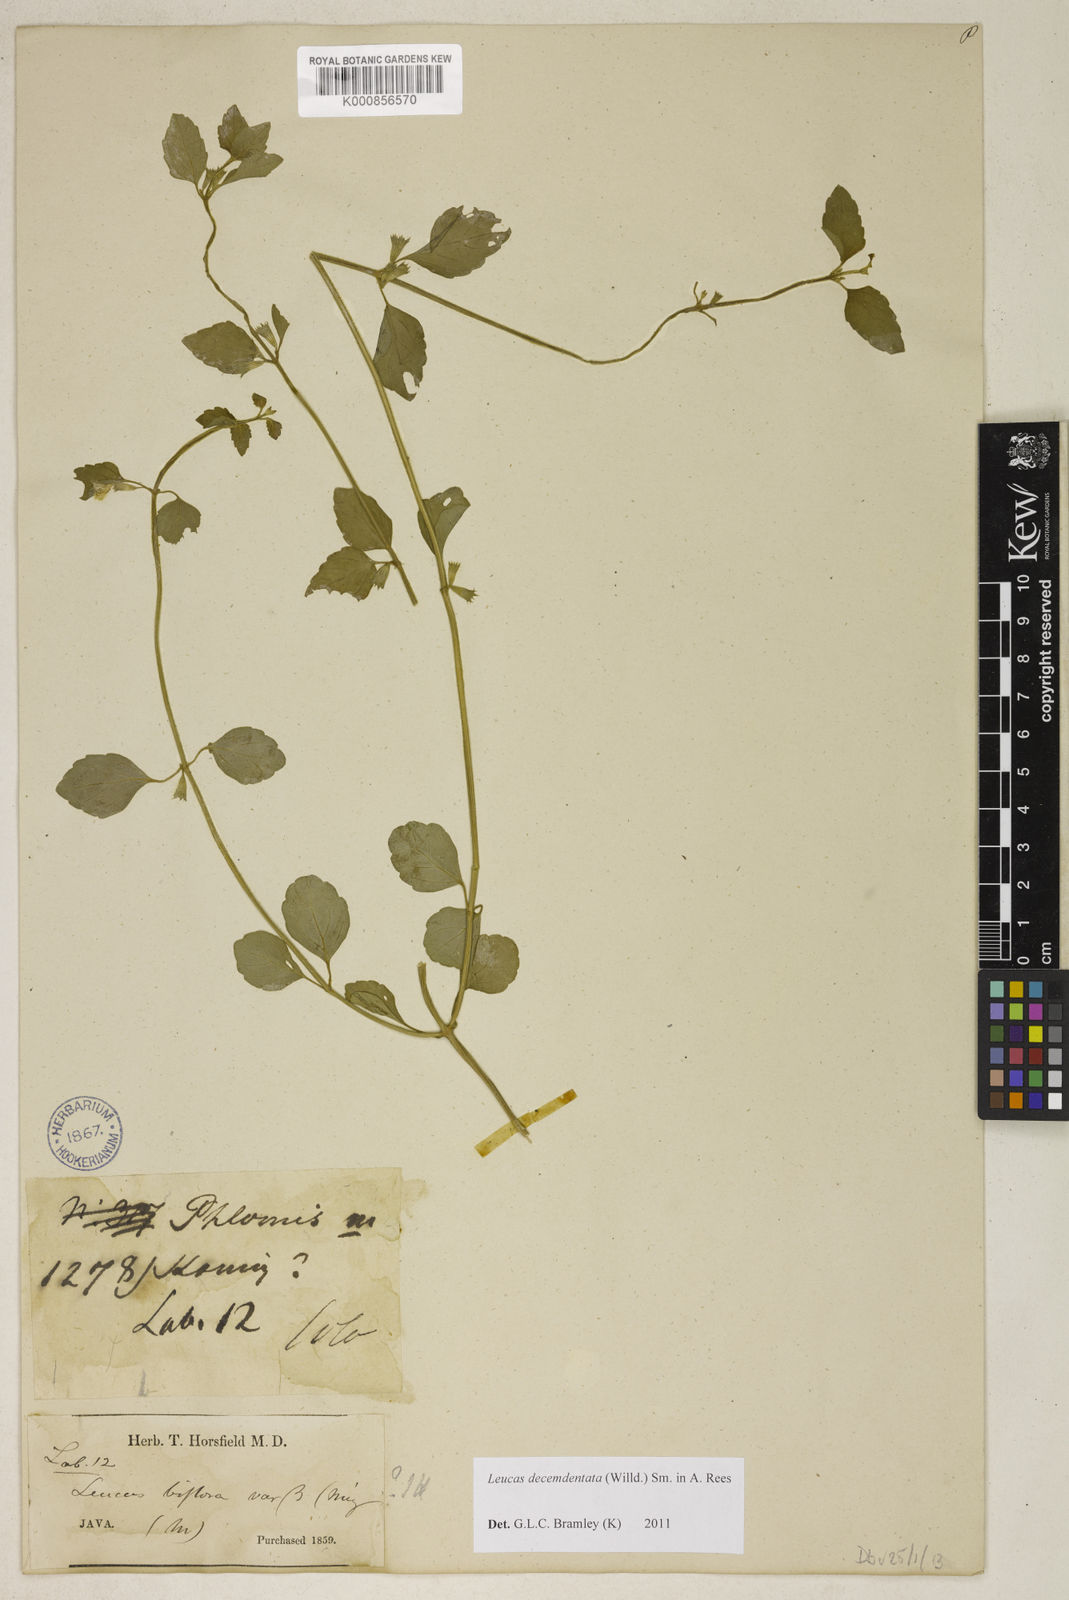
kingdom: Plantae
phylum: Tracheophyta
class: Magnoliopsida
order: Lamiales
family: Lamiaceae
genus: Leucas
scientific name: Leucas decemdentata
